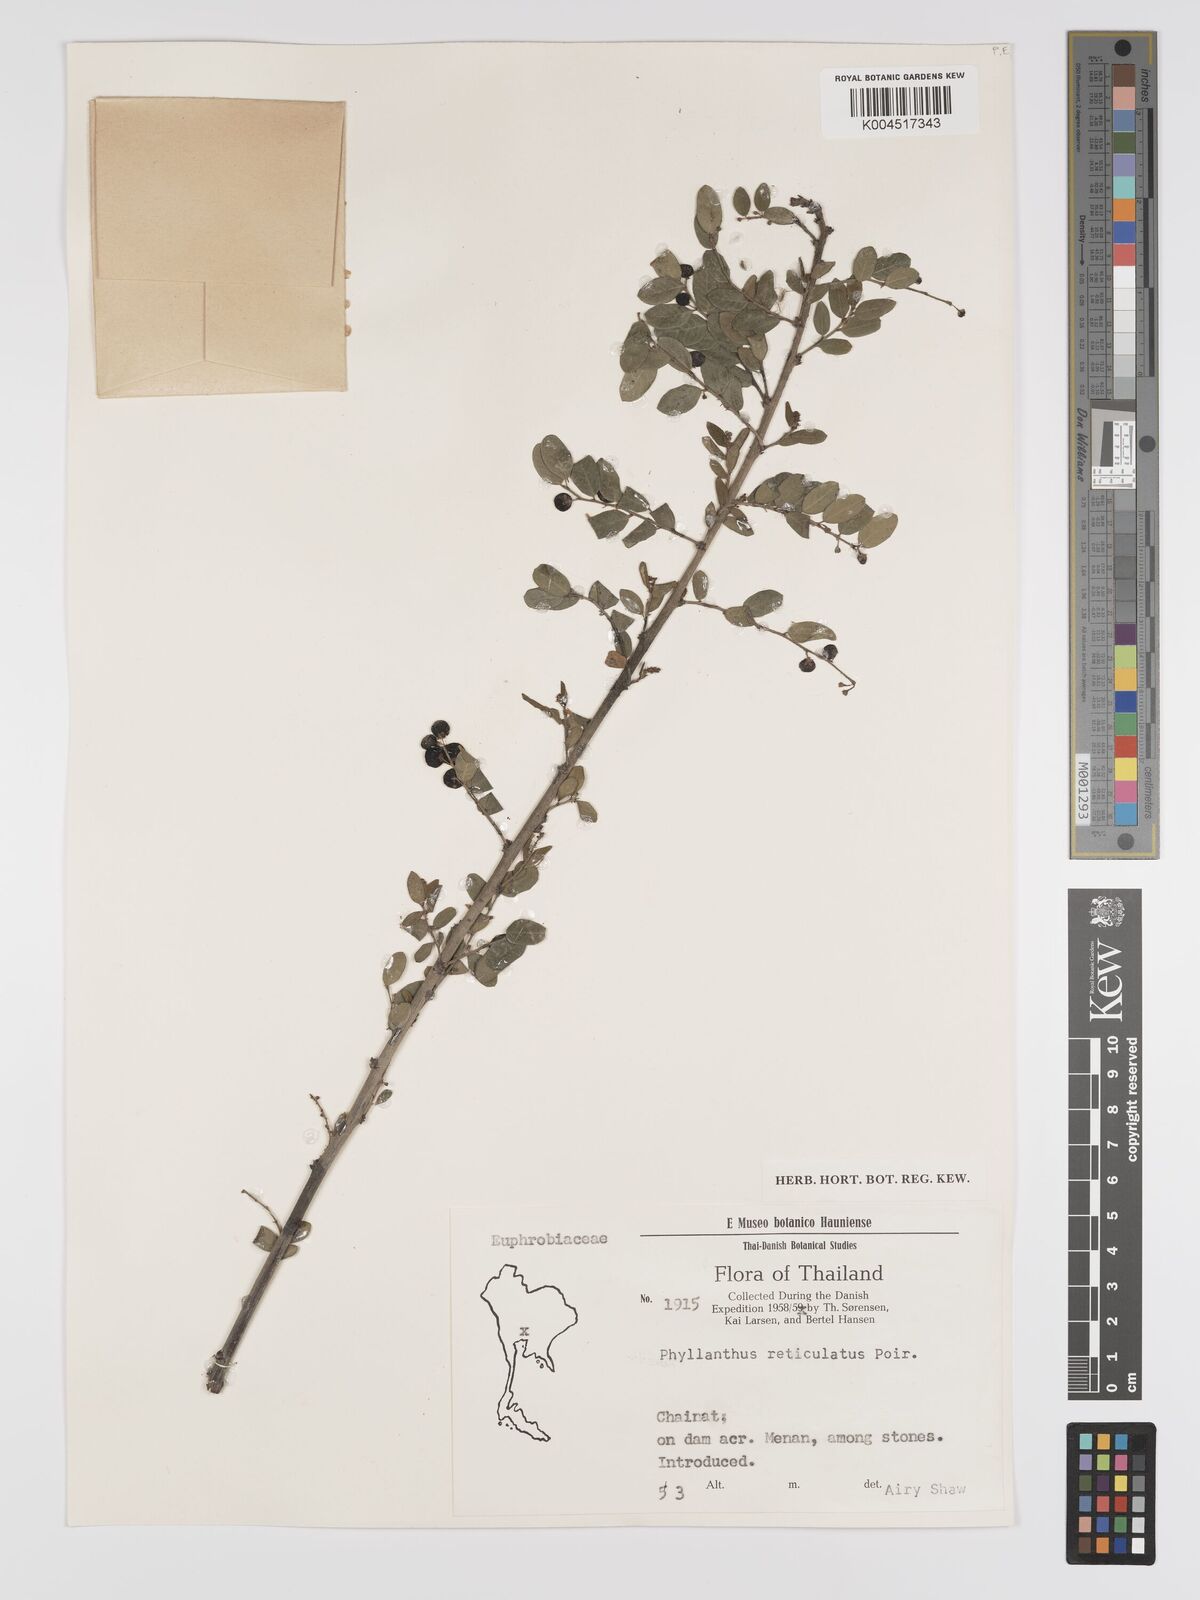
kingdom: Plantae
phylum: Tracheophyta
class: Magnoliopsida
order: Malpighiales
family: Phyllanthaceae
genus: Phyllanthus
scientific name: Phyllanthus reticulatus
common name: Potato bush
